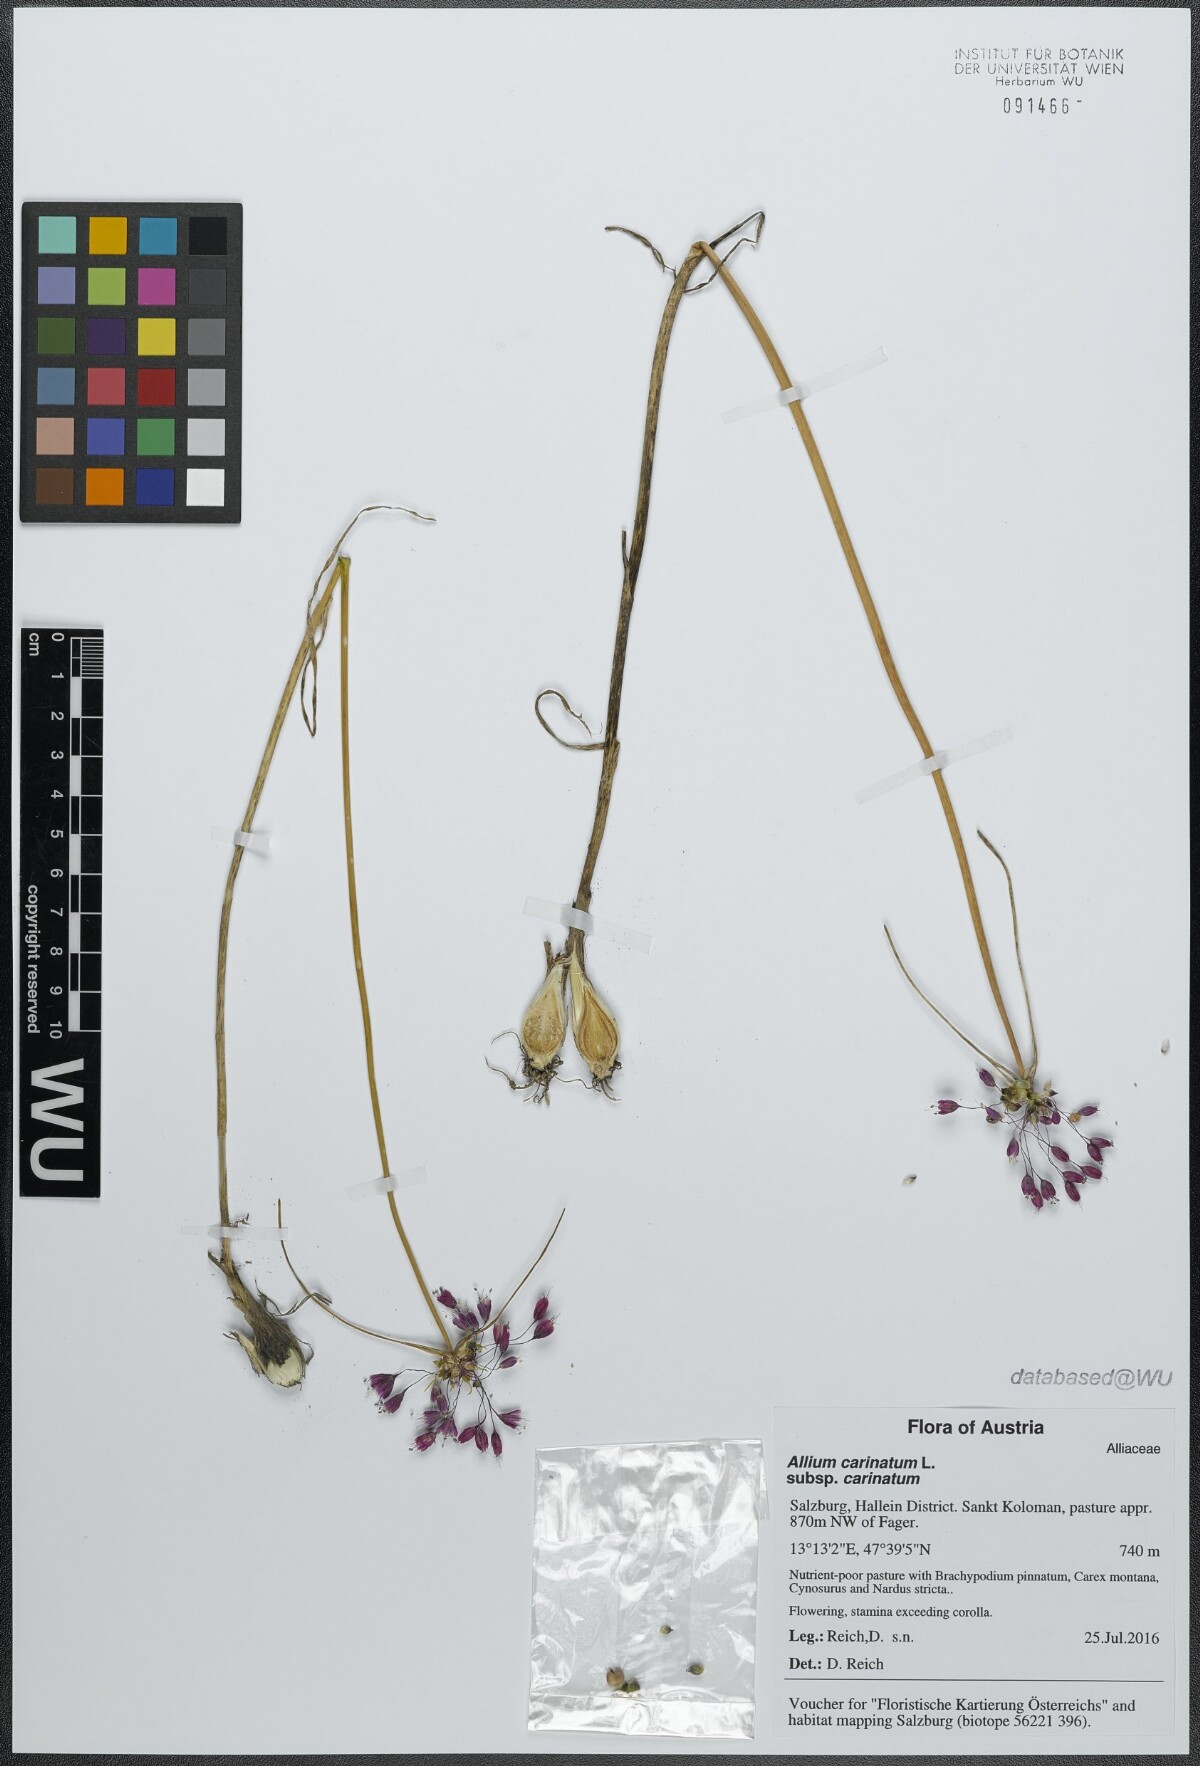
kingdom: Plantae
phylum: Tracheophyta
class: Liliopsida
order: Asparagales
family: Amaryllidaceae
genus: Allium
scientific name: Allium carinatum
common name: Keeled garlic
